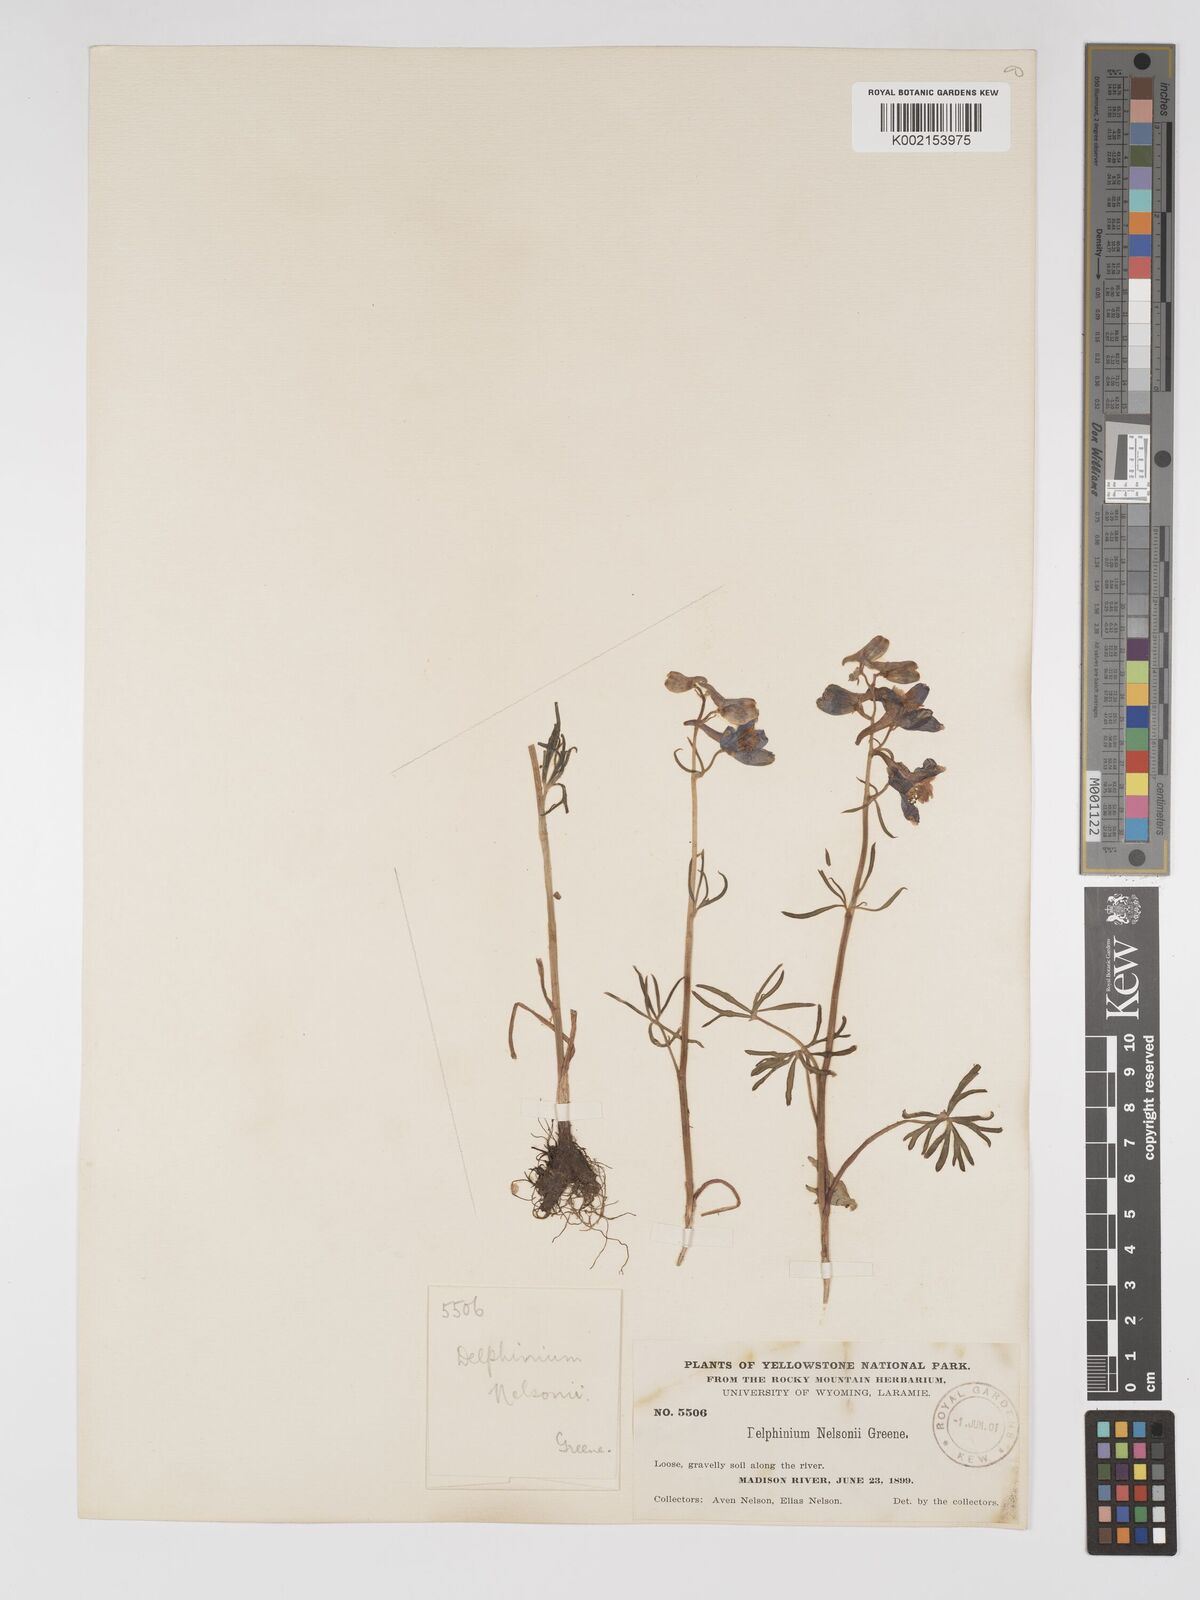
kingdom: Plantae
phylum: Tracheophyta
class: Magnoliopsida
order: Ranunculales
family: Ranunculaceae
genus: Delphinium
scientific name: Delphinium nuttallianum
